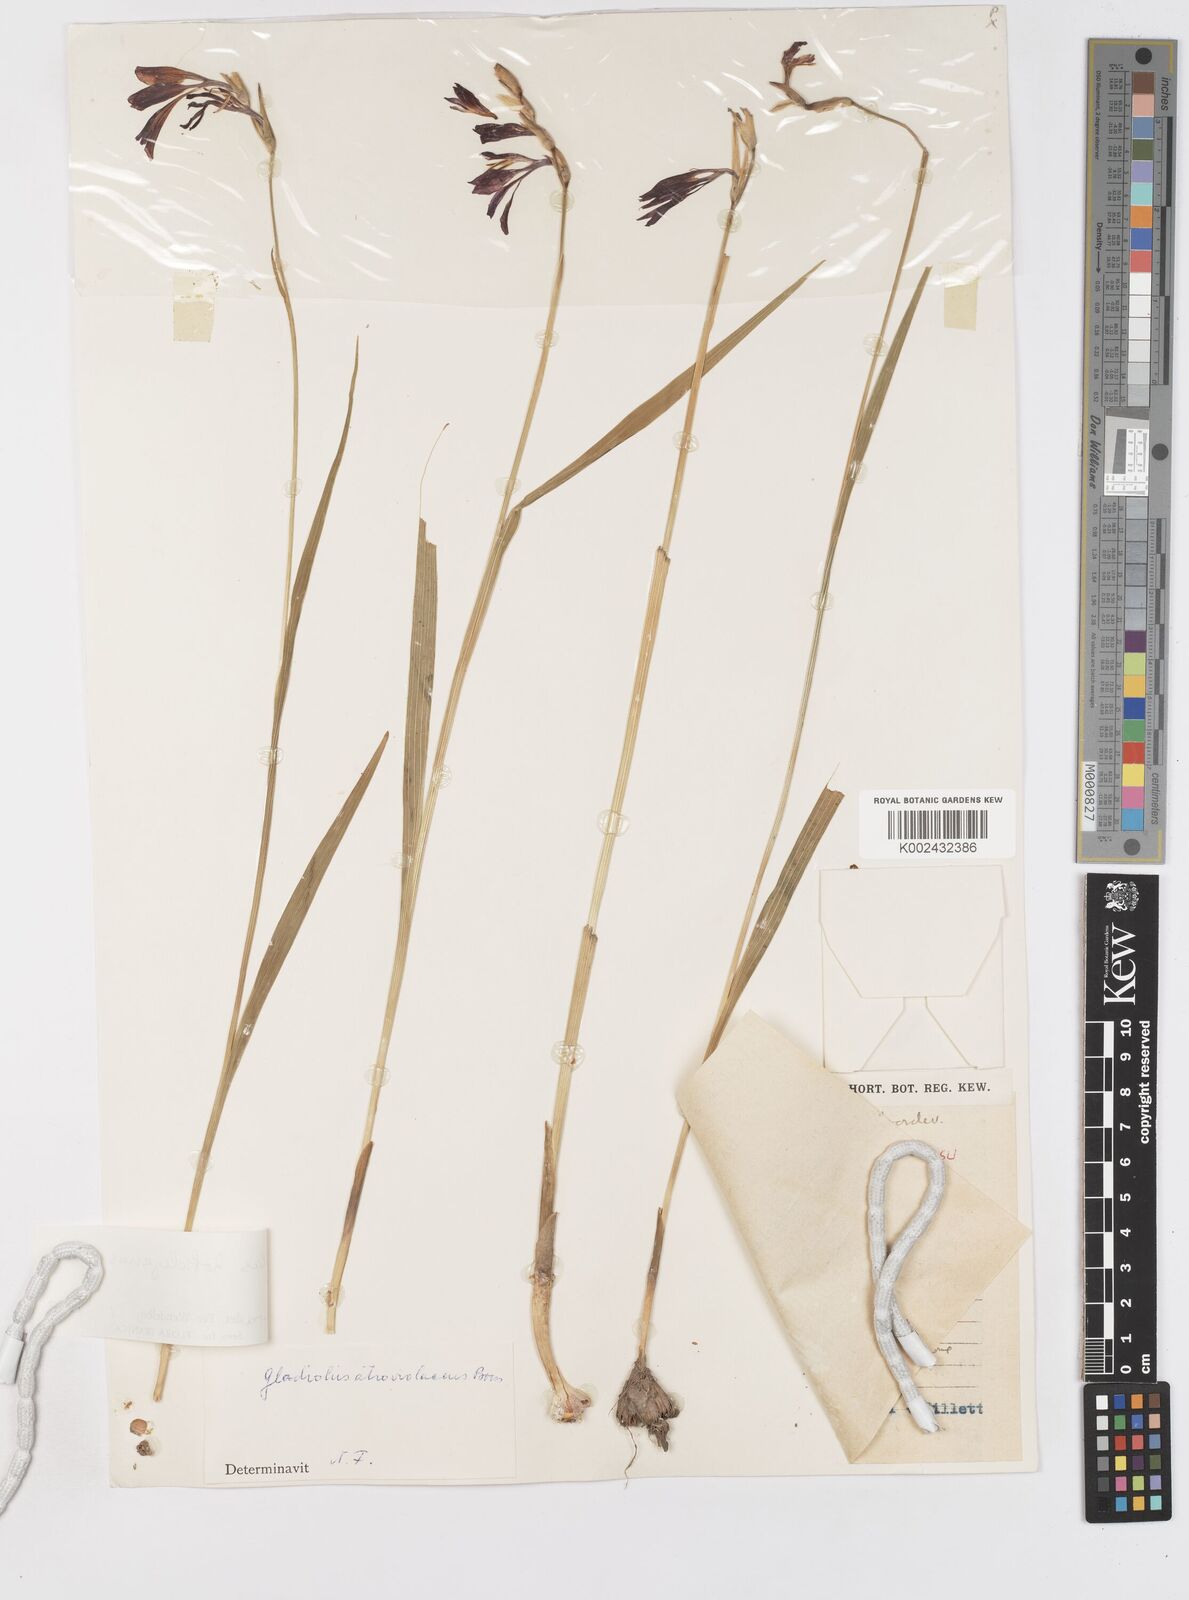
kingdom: Plantae
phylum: Tracheophyta
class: Liliopsida
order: Asparagales
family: Iridaceae
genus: Gladiolus
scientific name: Gladiolus kotschyanus
